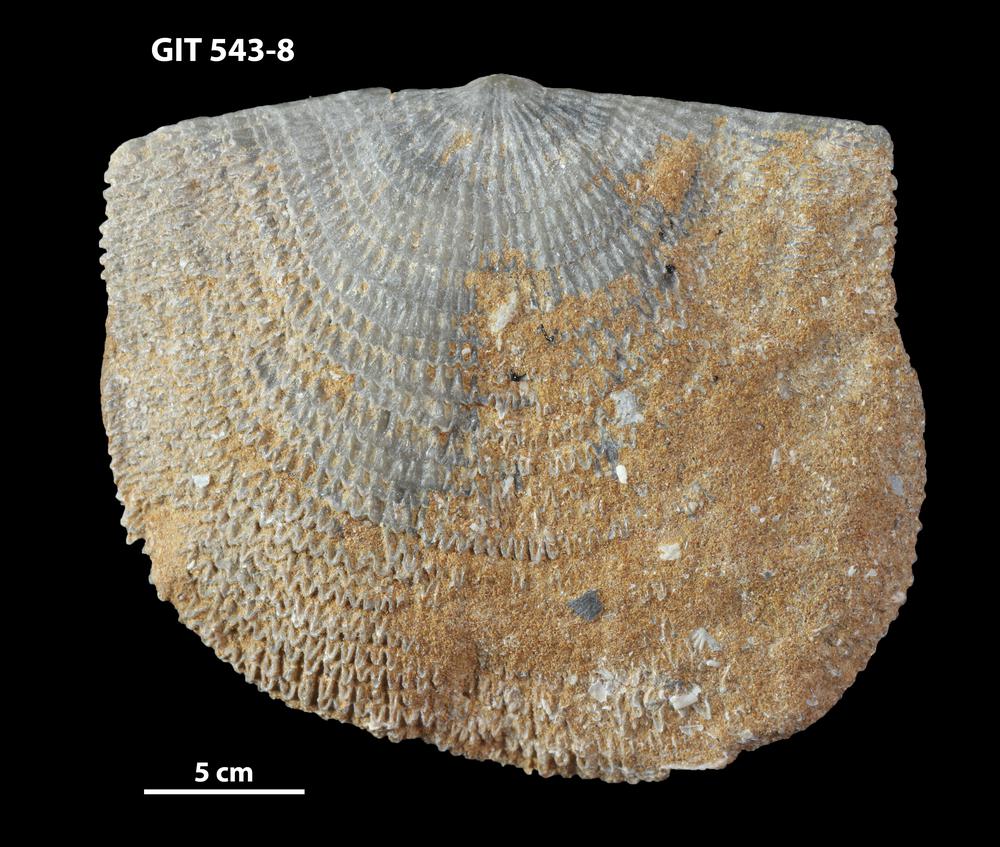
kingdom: Animalia
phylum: Brachiopoda
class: Rhynchonellata
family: Clitambonitidae
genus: Clitambonites
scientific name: Clitambonites
